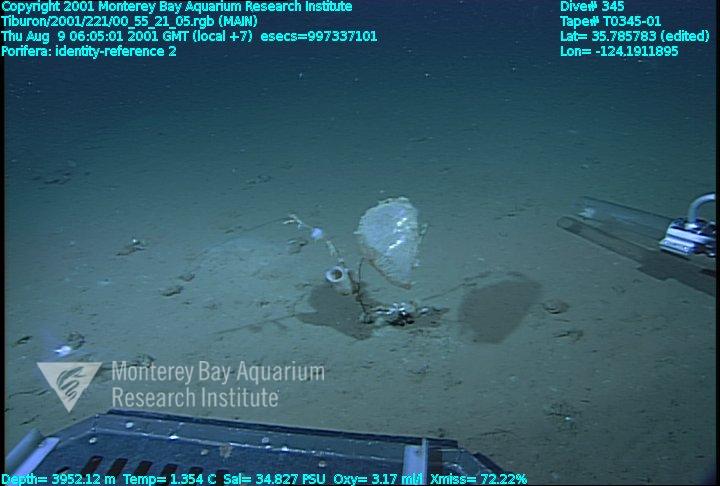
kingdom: Animalia
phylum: Porifera
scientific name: Porifera
